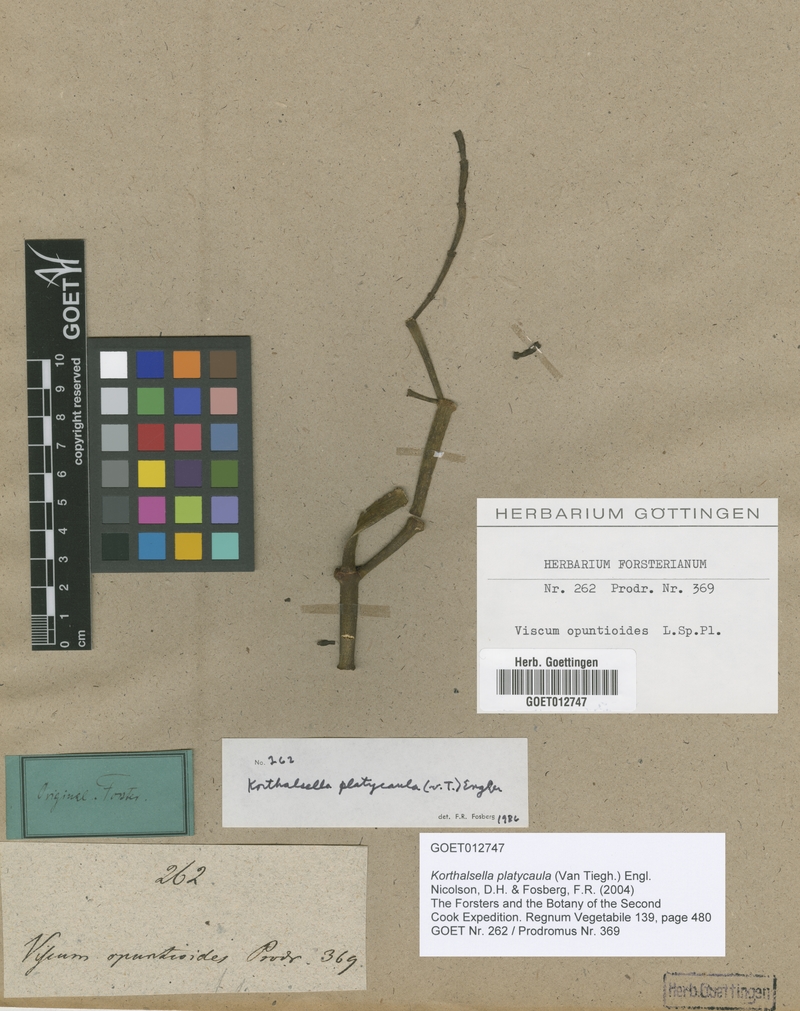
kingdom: Plantae
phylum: Tracheophyta
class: Magnoliopsida
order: Santalales
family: Viscaceae
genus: Korthalsella
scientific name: Korthalsella platycaula
